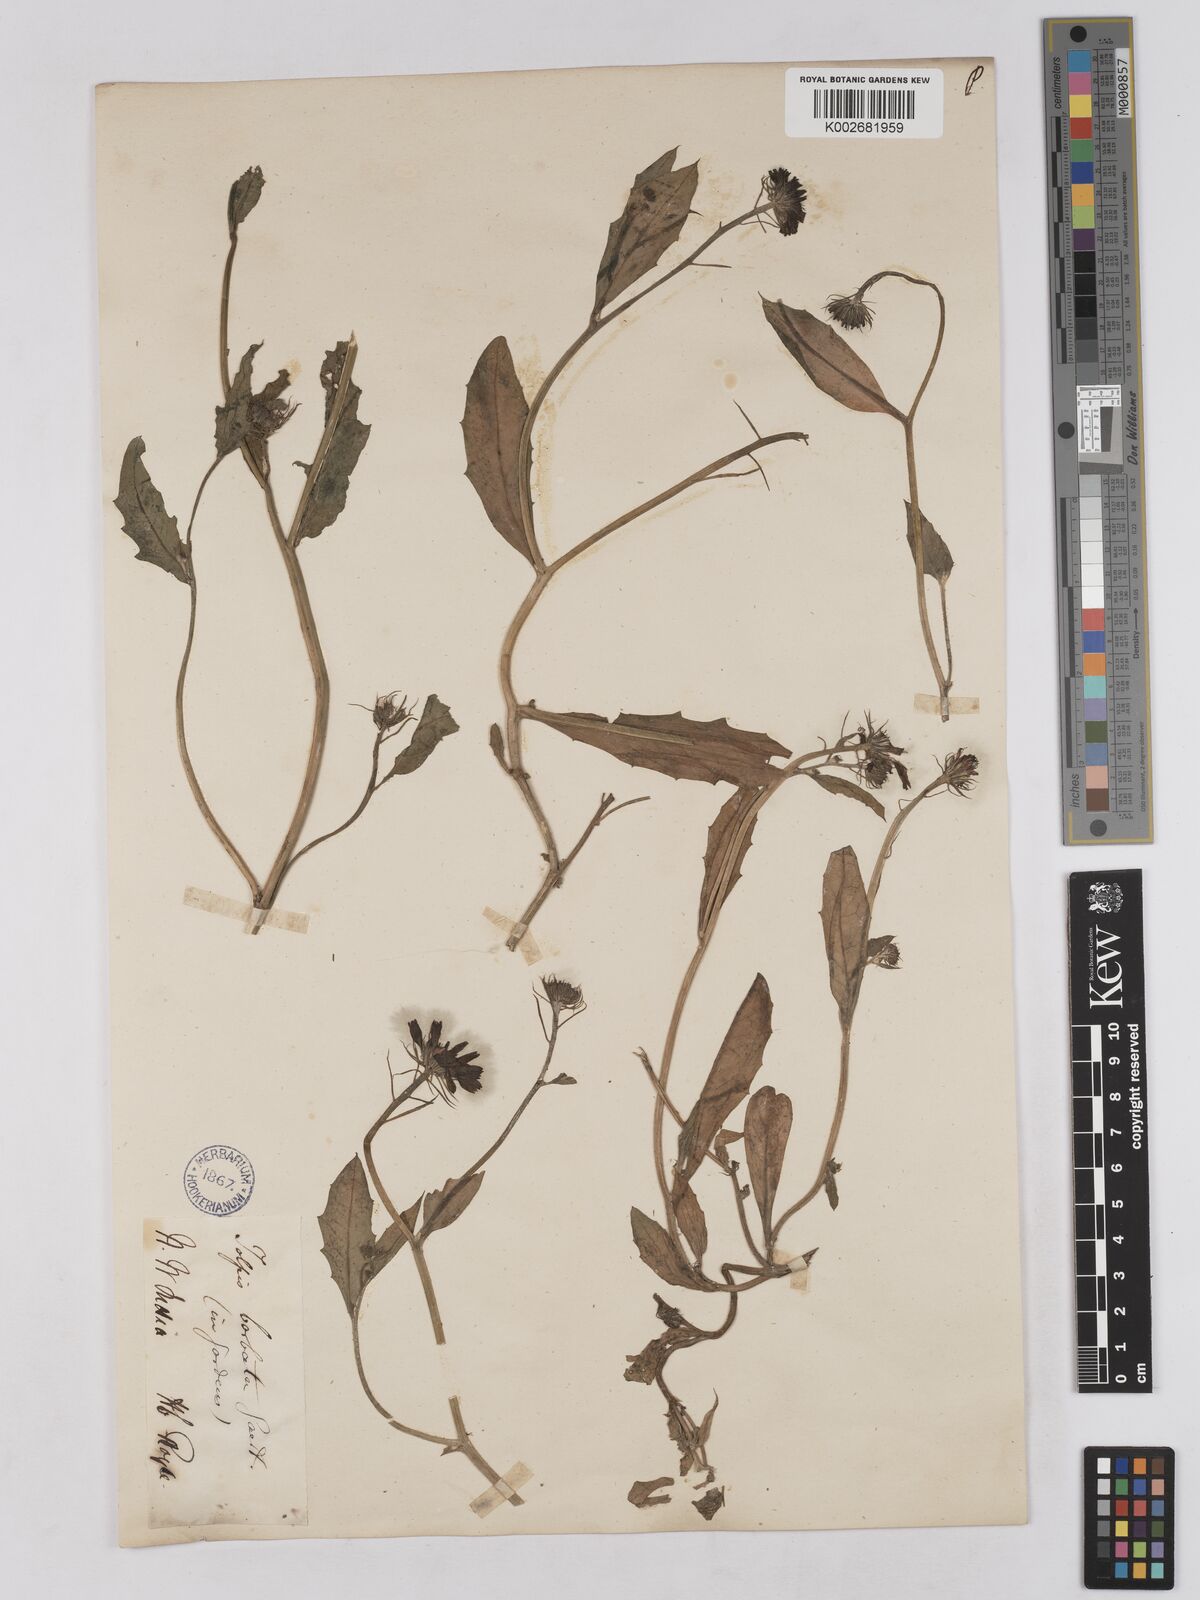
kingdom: Plantae
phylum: Tracheophyta
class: Magnoliopsida
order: Asterales
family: Asteraceae
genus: Tolpis
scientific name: Tolpis barbata
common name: Yellow hawkweed
